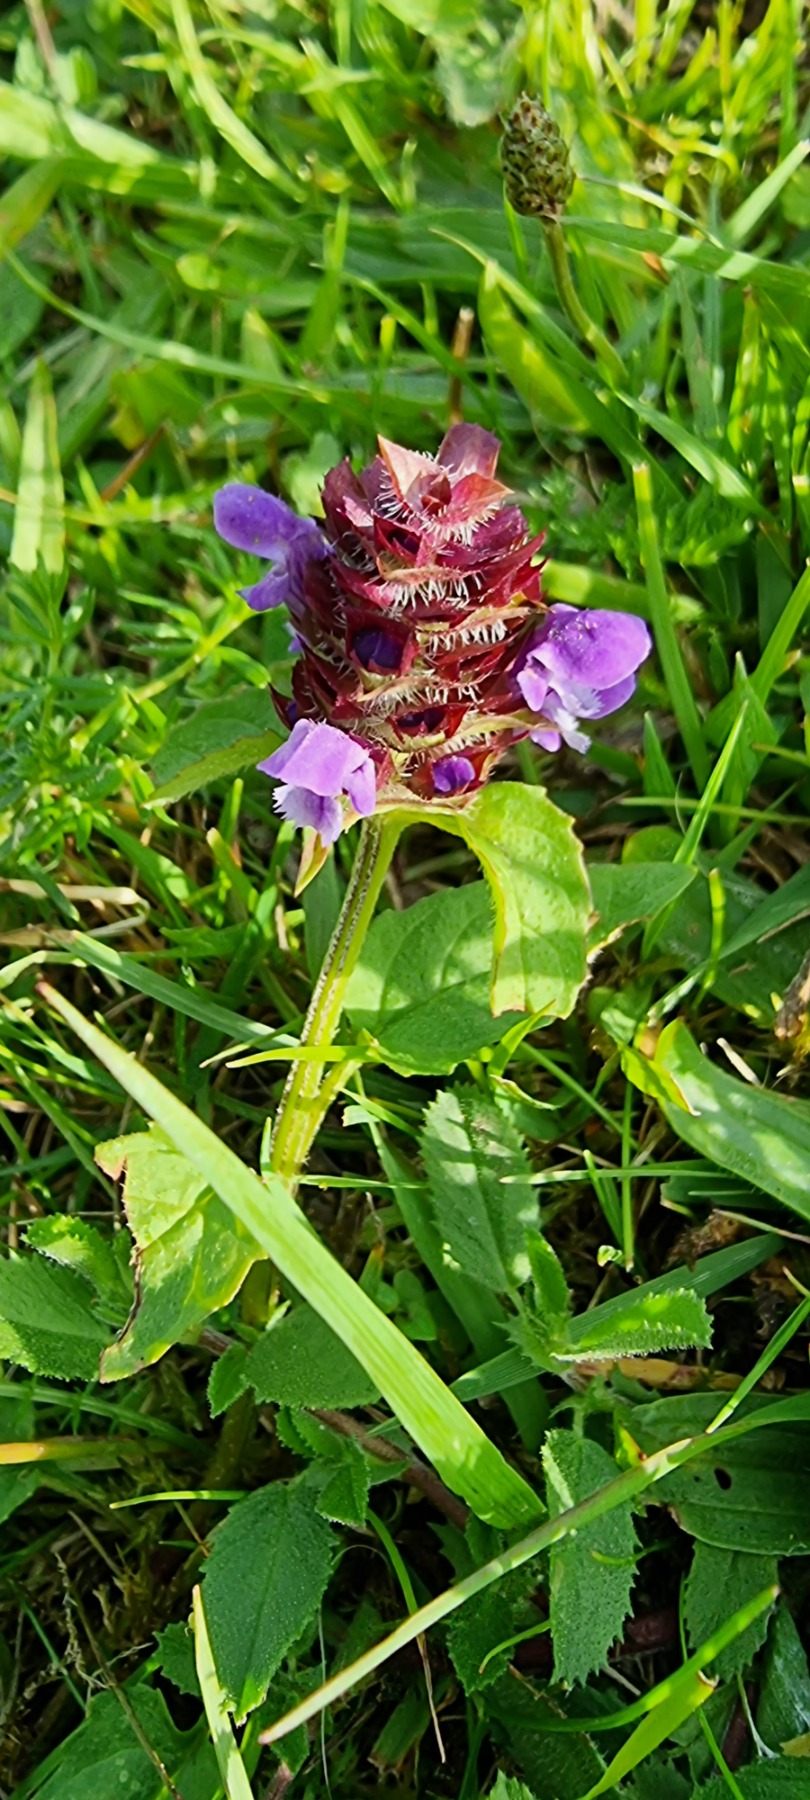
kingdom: Plantae
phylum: Tracheophyta
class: Magnoliopsida
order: Lamiales
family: Lamiaceae
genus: Prunella
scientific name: Prunella vulgaris
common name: Almindelig brunelle
